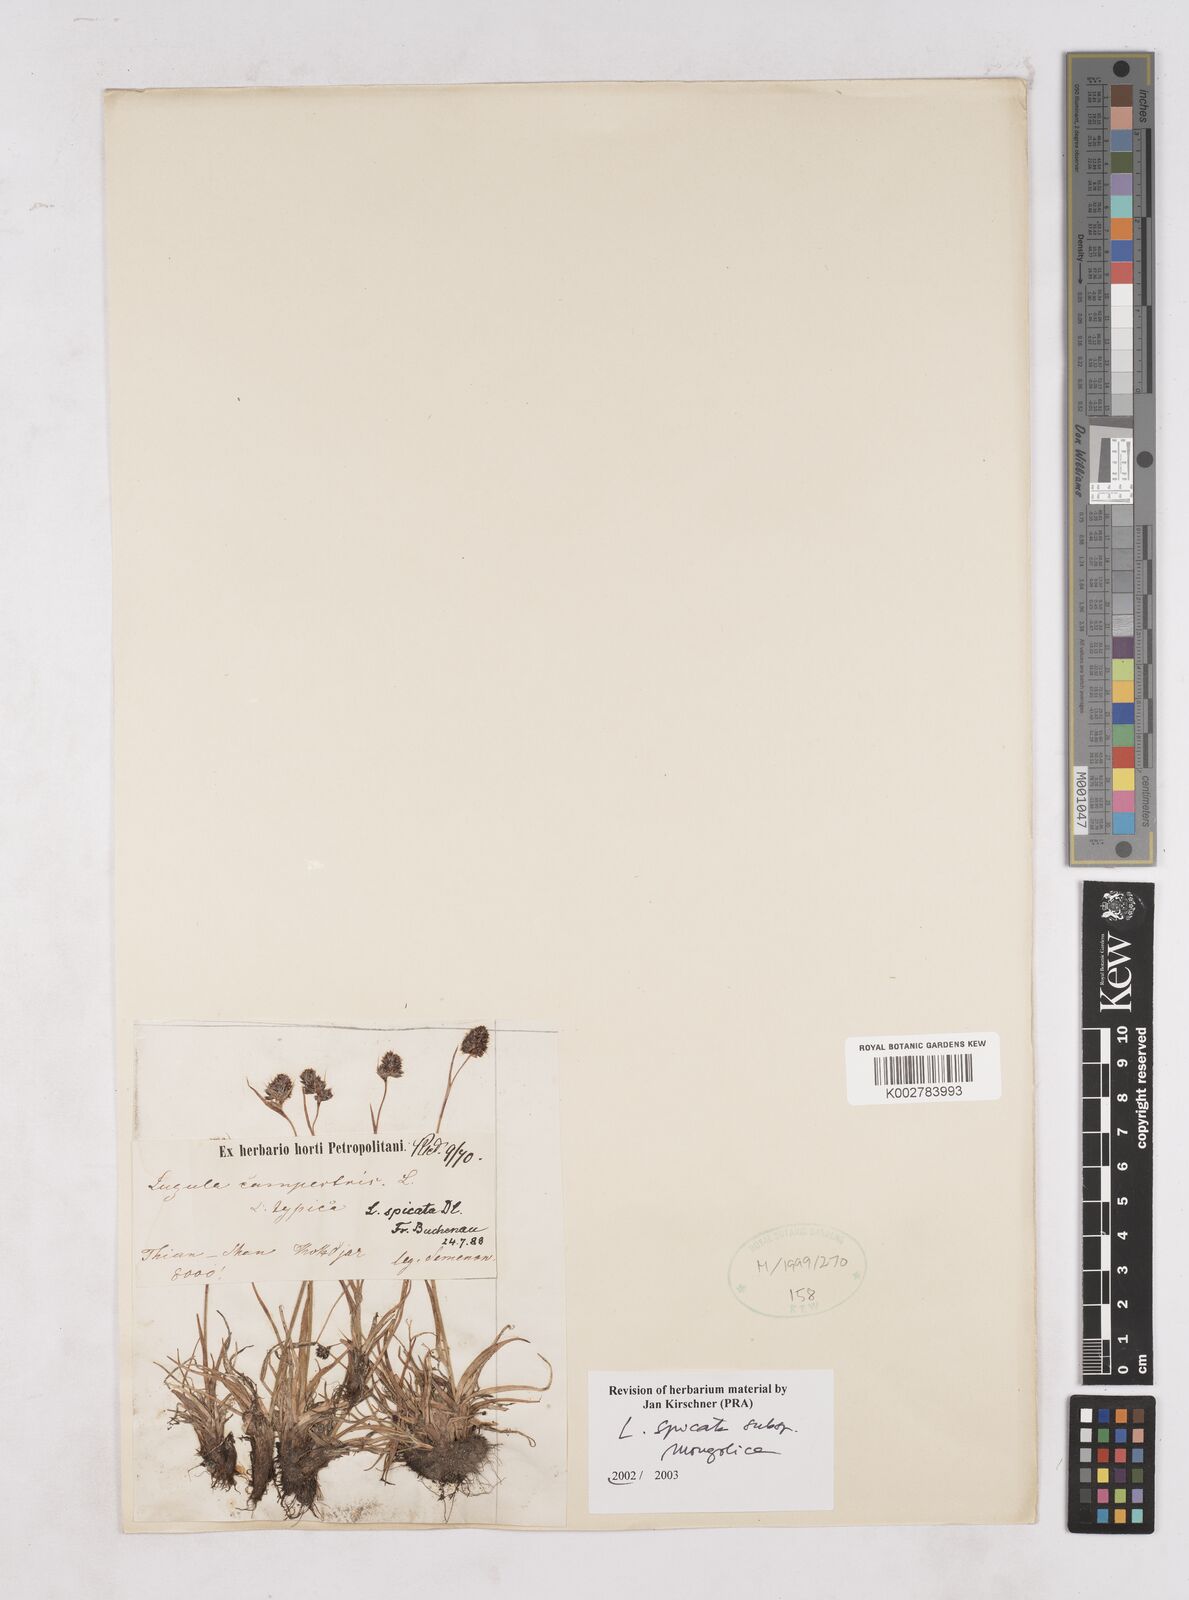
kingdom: Plantae
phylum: Tracheophyta
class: Liliopsida
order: Poales
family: Juncaceae
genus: Luzula
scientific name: Luzula spicata
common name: Spiked wood-rush
